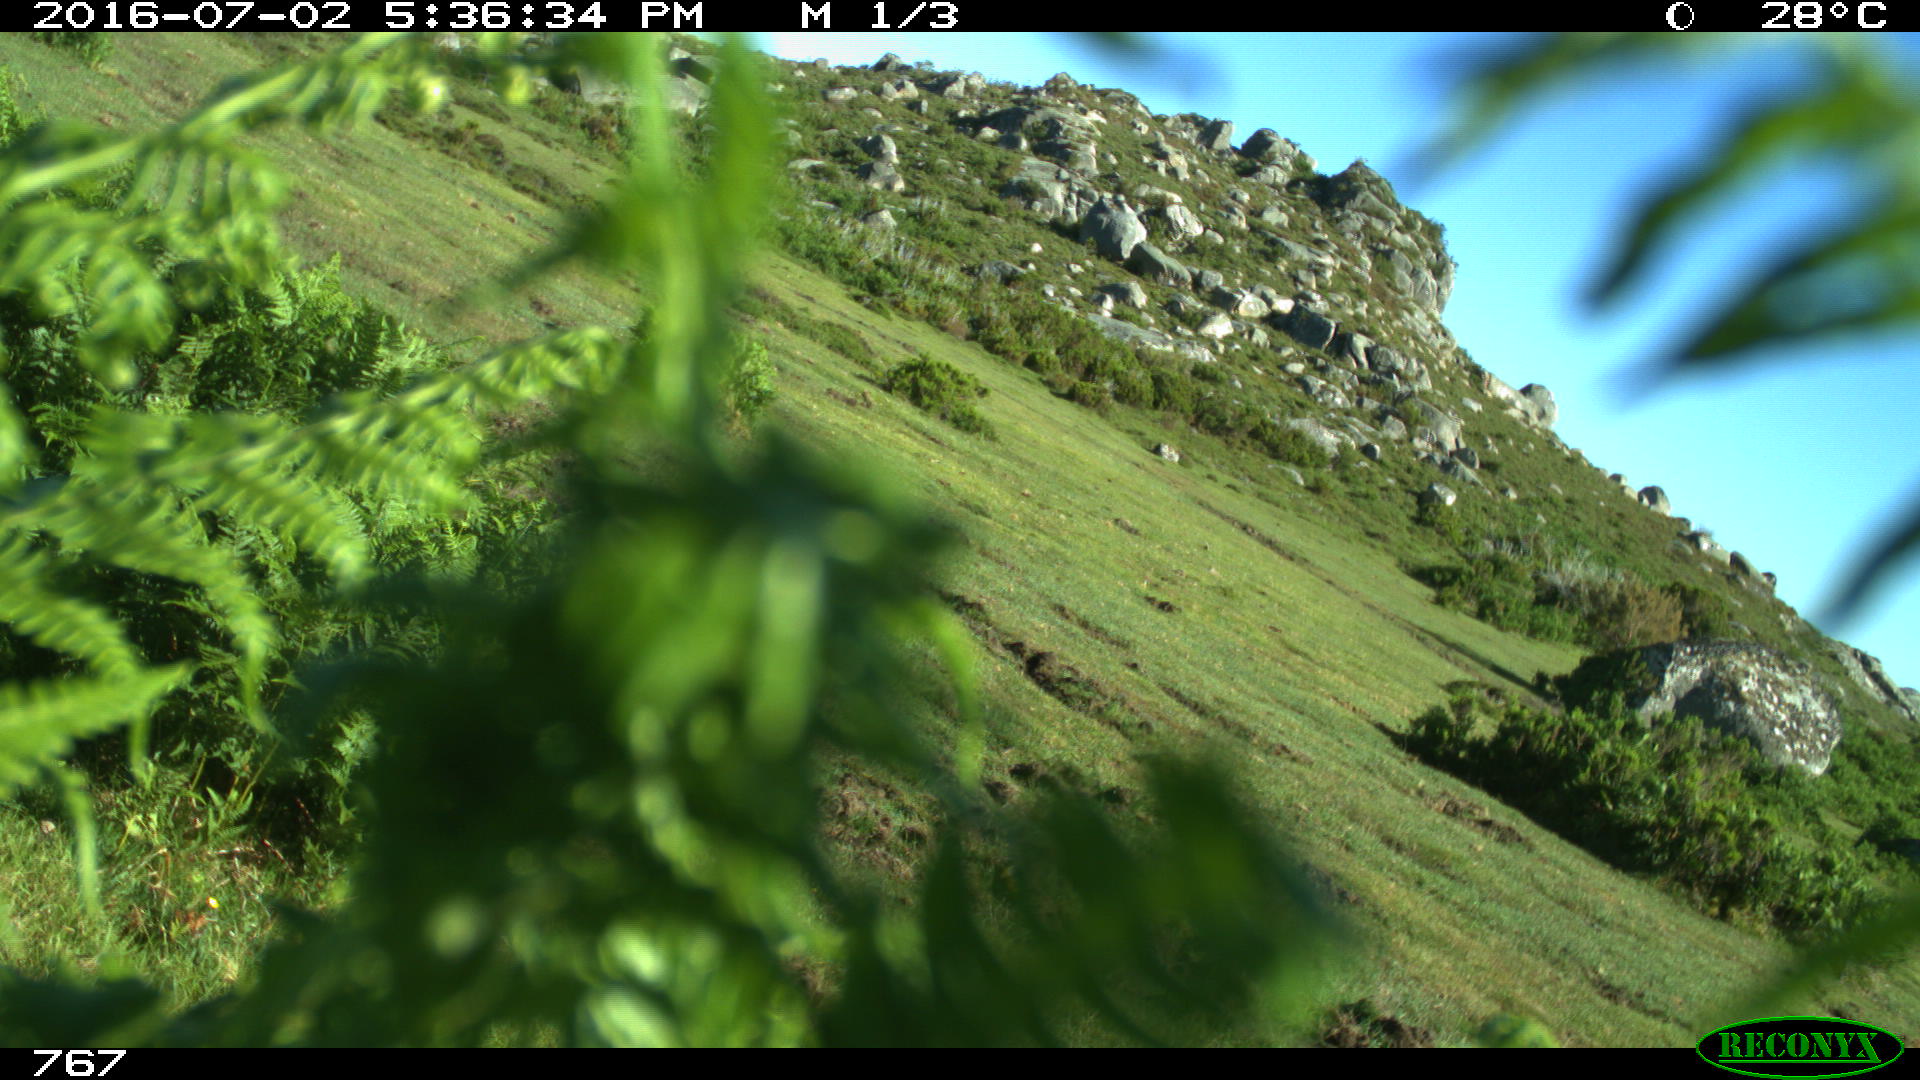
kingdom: Animalia
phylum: Chordata
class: Mammalia
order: Artiodactyla
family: Bovidae
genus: Bos
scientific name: Bos taurus
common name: Domesticated cattle
